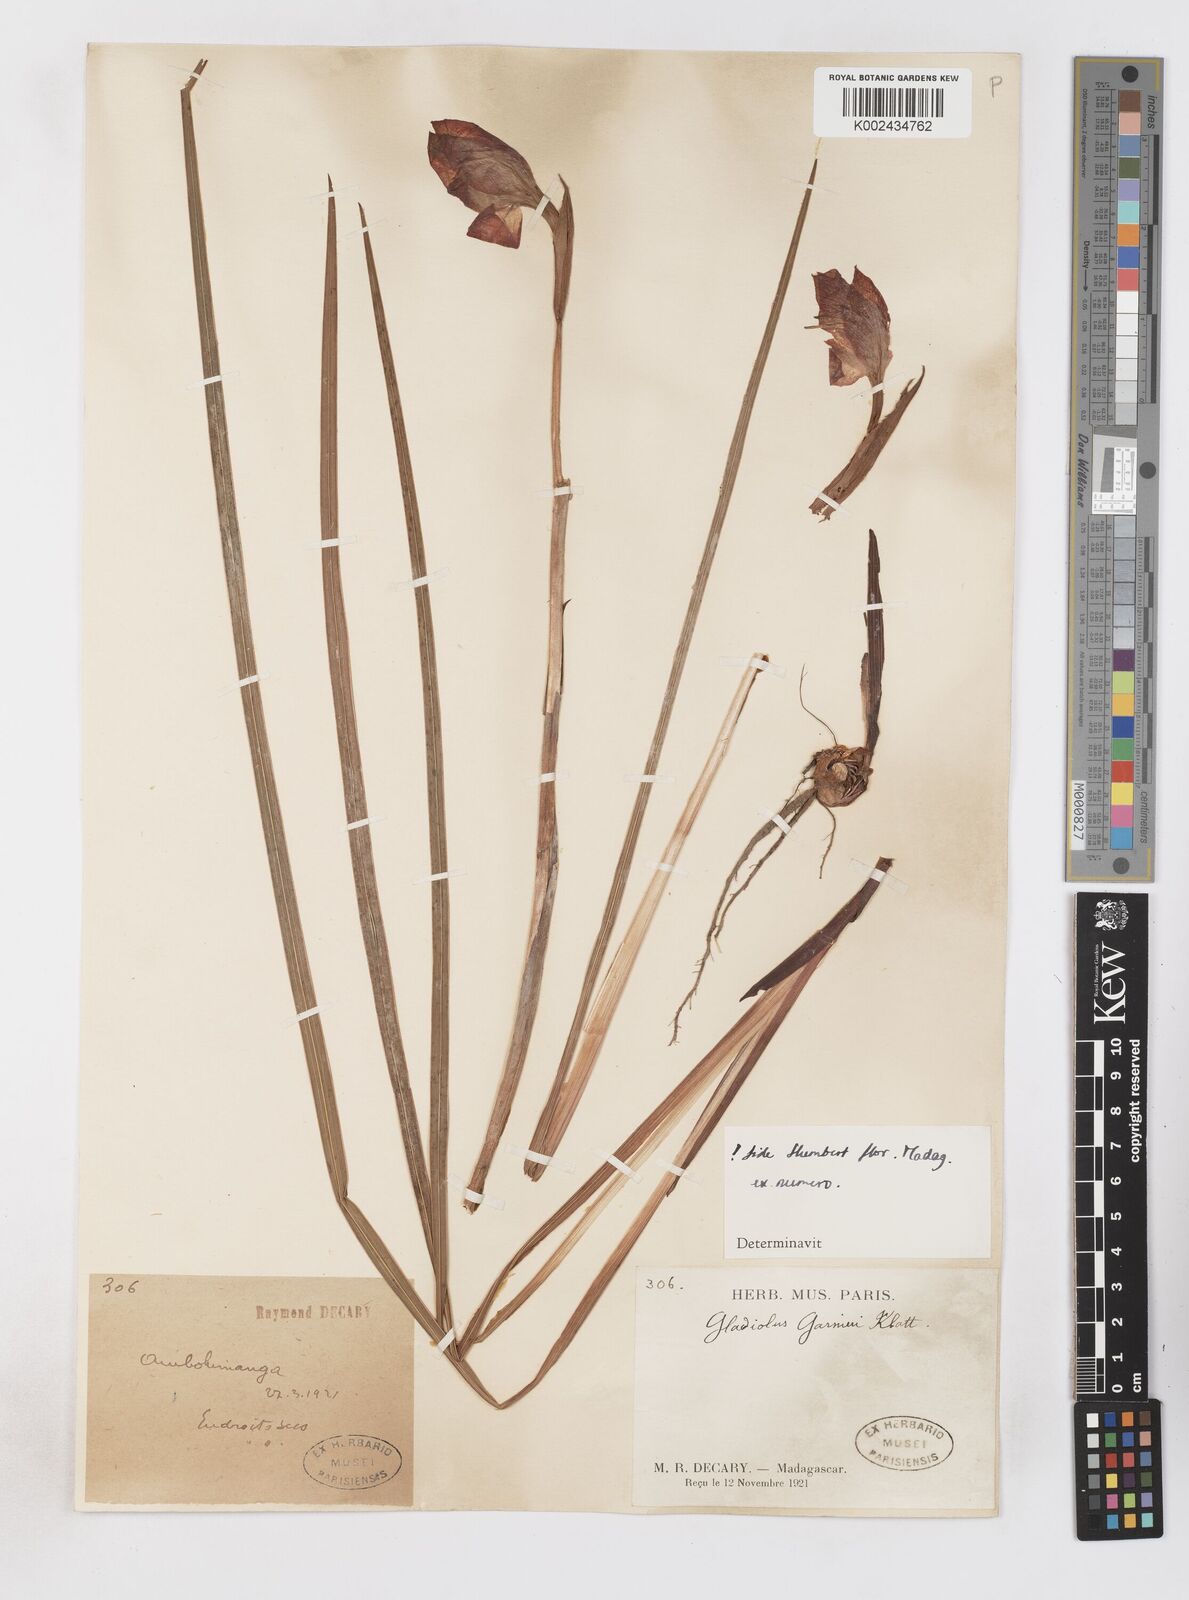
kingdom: Plantae
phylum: Tracheophyta
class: Liliopsida
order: Asparagales
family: Iridaceae
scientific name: Iridaceae
